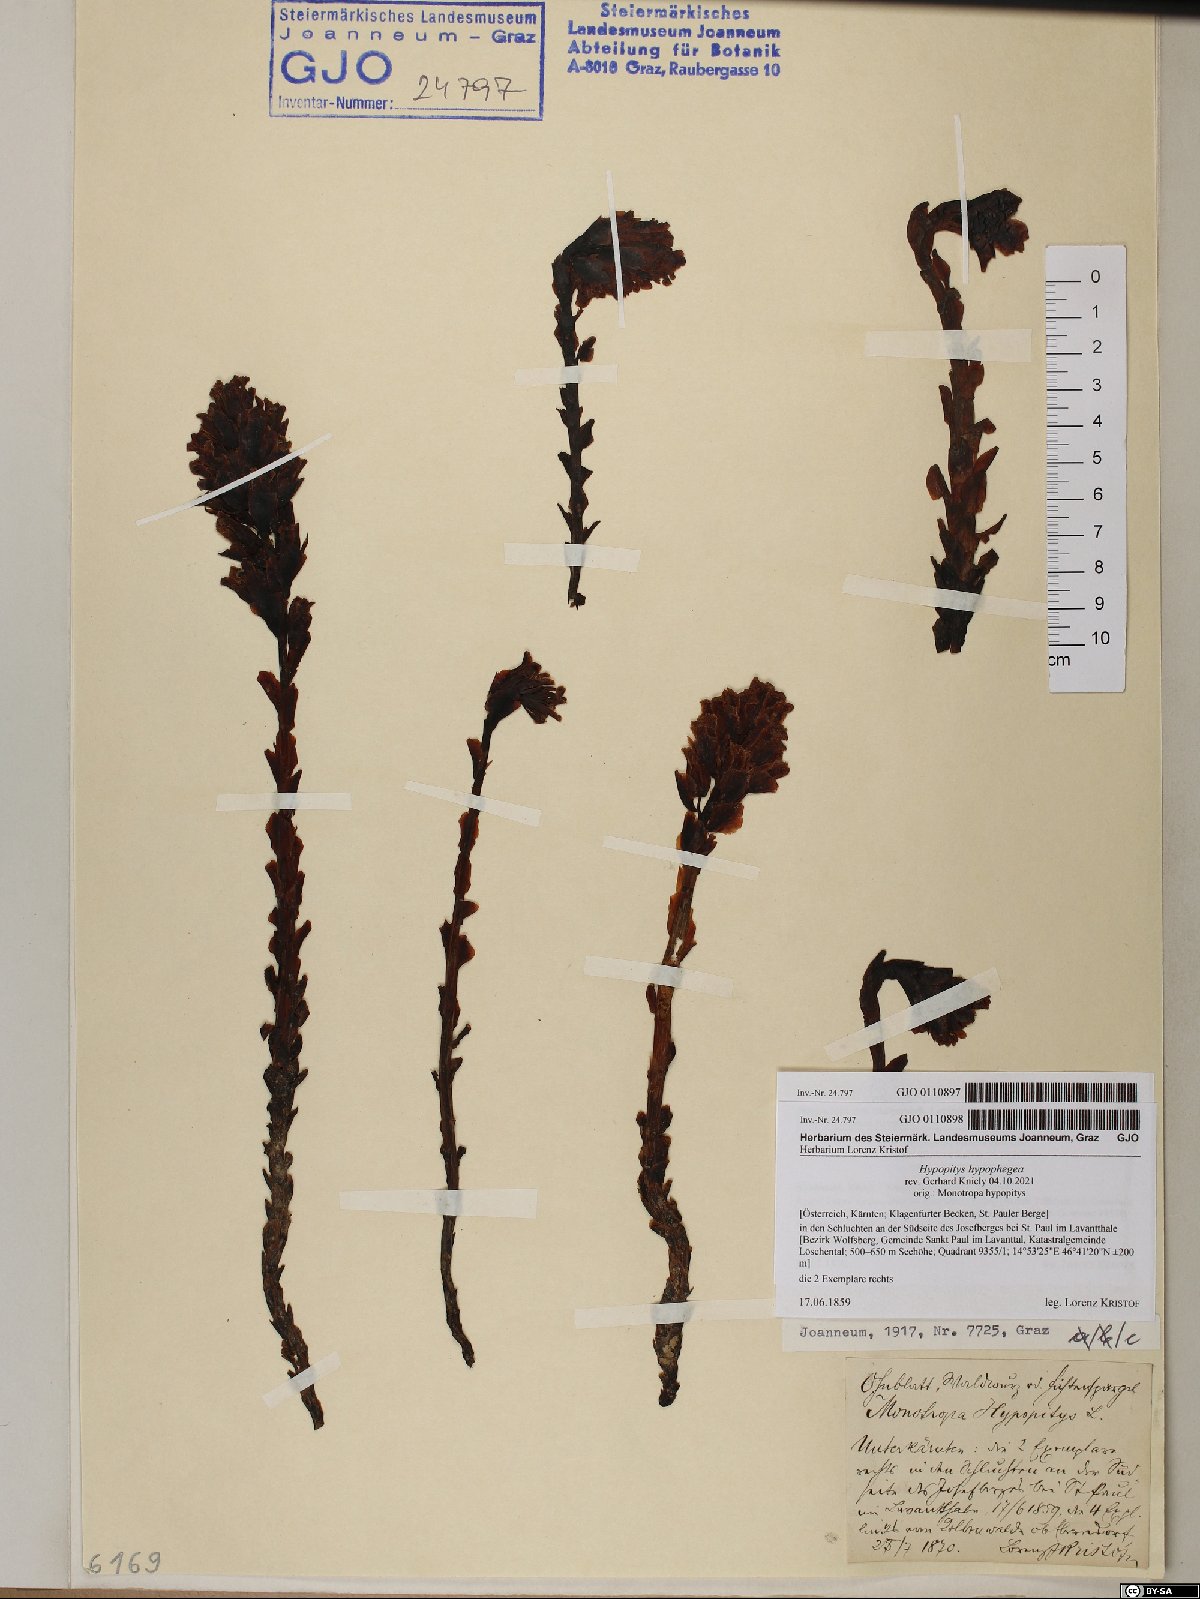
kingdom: Plantae
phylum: Tracheophyta
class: Magnoliopsida
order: Ericales
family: Ericaceae
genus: Hypopitys
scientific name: Hypopitys hypophegea
